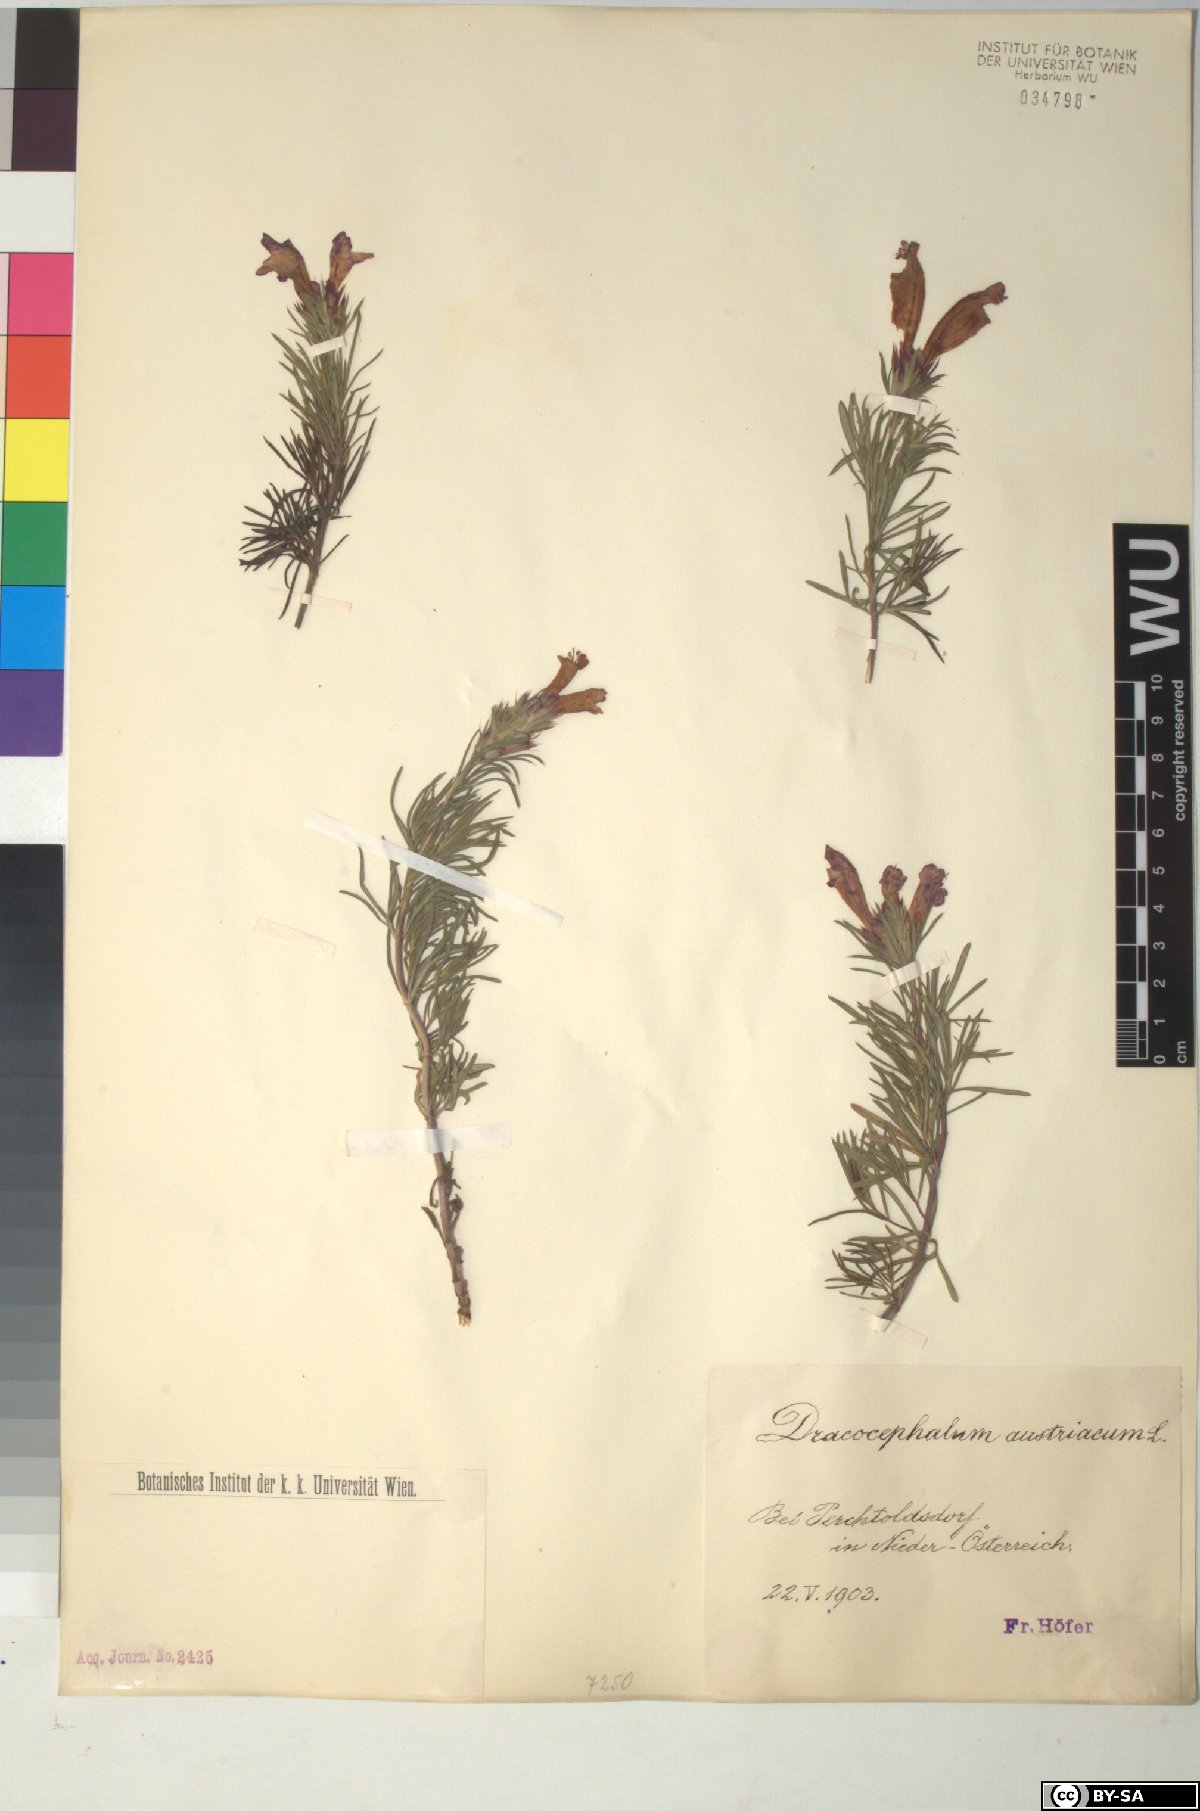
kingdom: Plantae
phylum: Tracheophyta
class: Magnoliopsida
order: Lamiales
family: Lamiaceae
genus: Dracocephalum
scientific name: Dracocephalum austriacum
